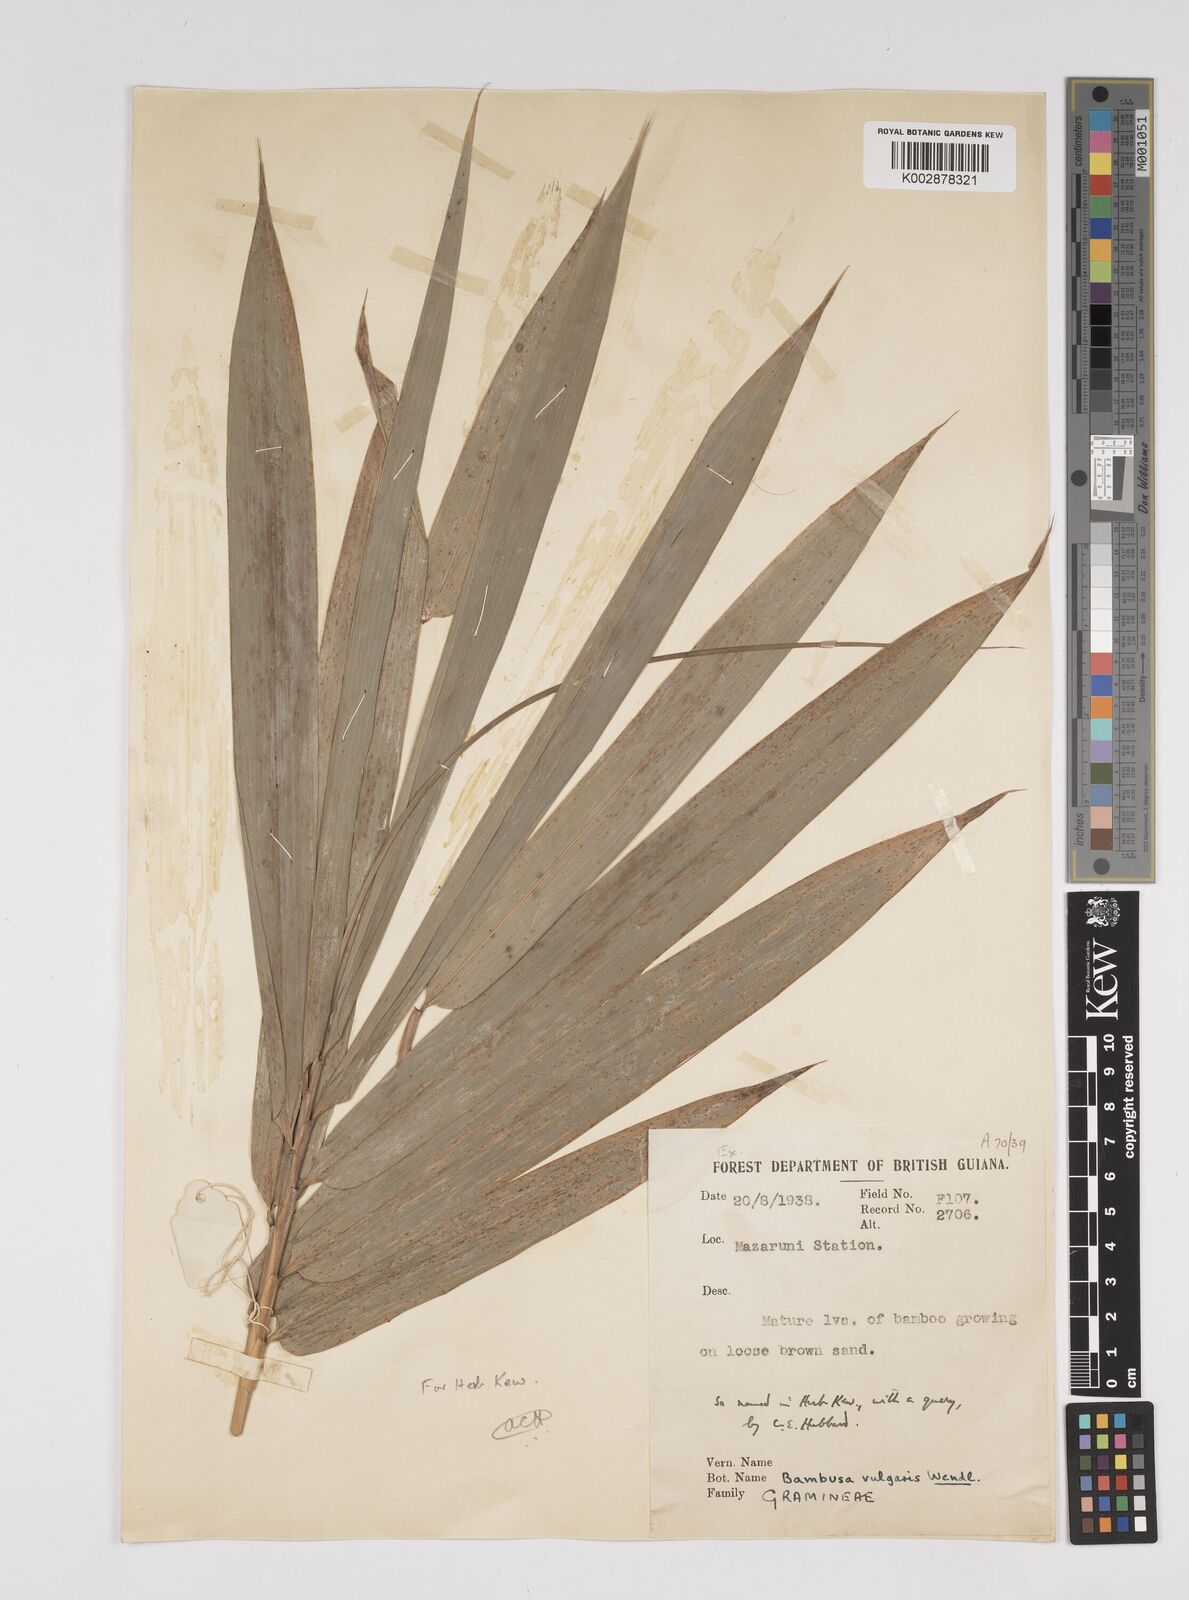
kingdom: Plantae
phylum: Tracheophyta
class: Liliopsida
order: Poales
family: Poaceae
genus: Bambusa
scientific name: Bambusa vulgaris
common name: Common bamboo
